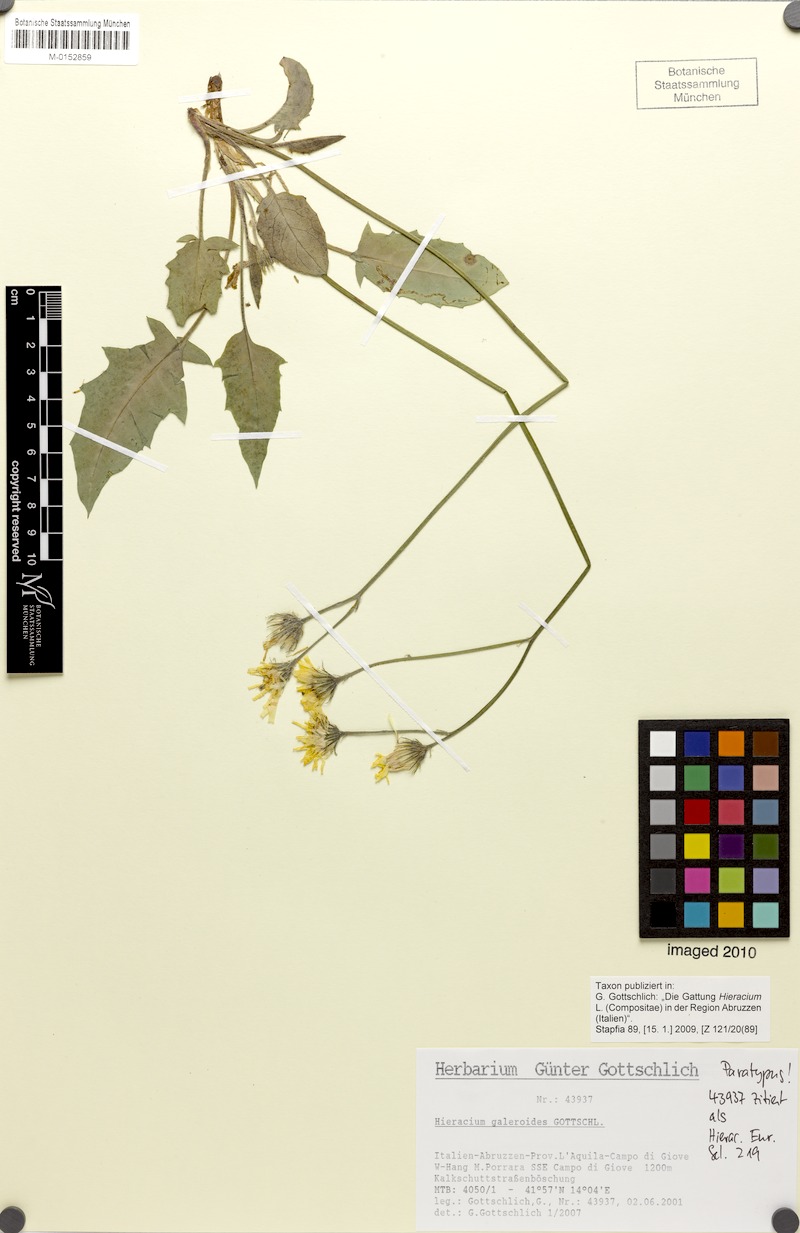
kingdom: Plantae
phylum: Tracheophyta
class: Magnoliopsida
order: Asterales
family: Asteraceae
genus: Hieracium
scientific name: Hieracium galeroides
